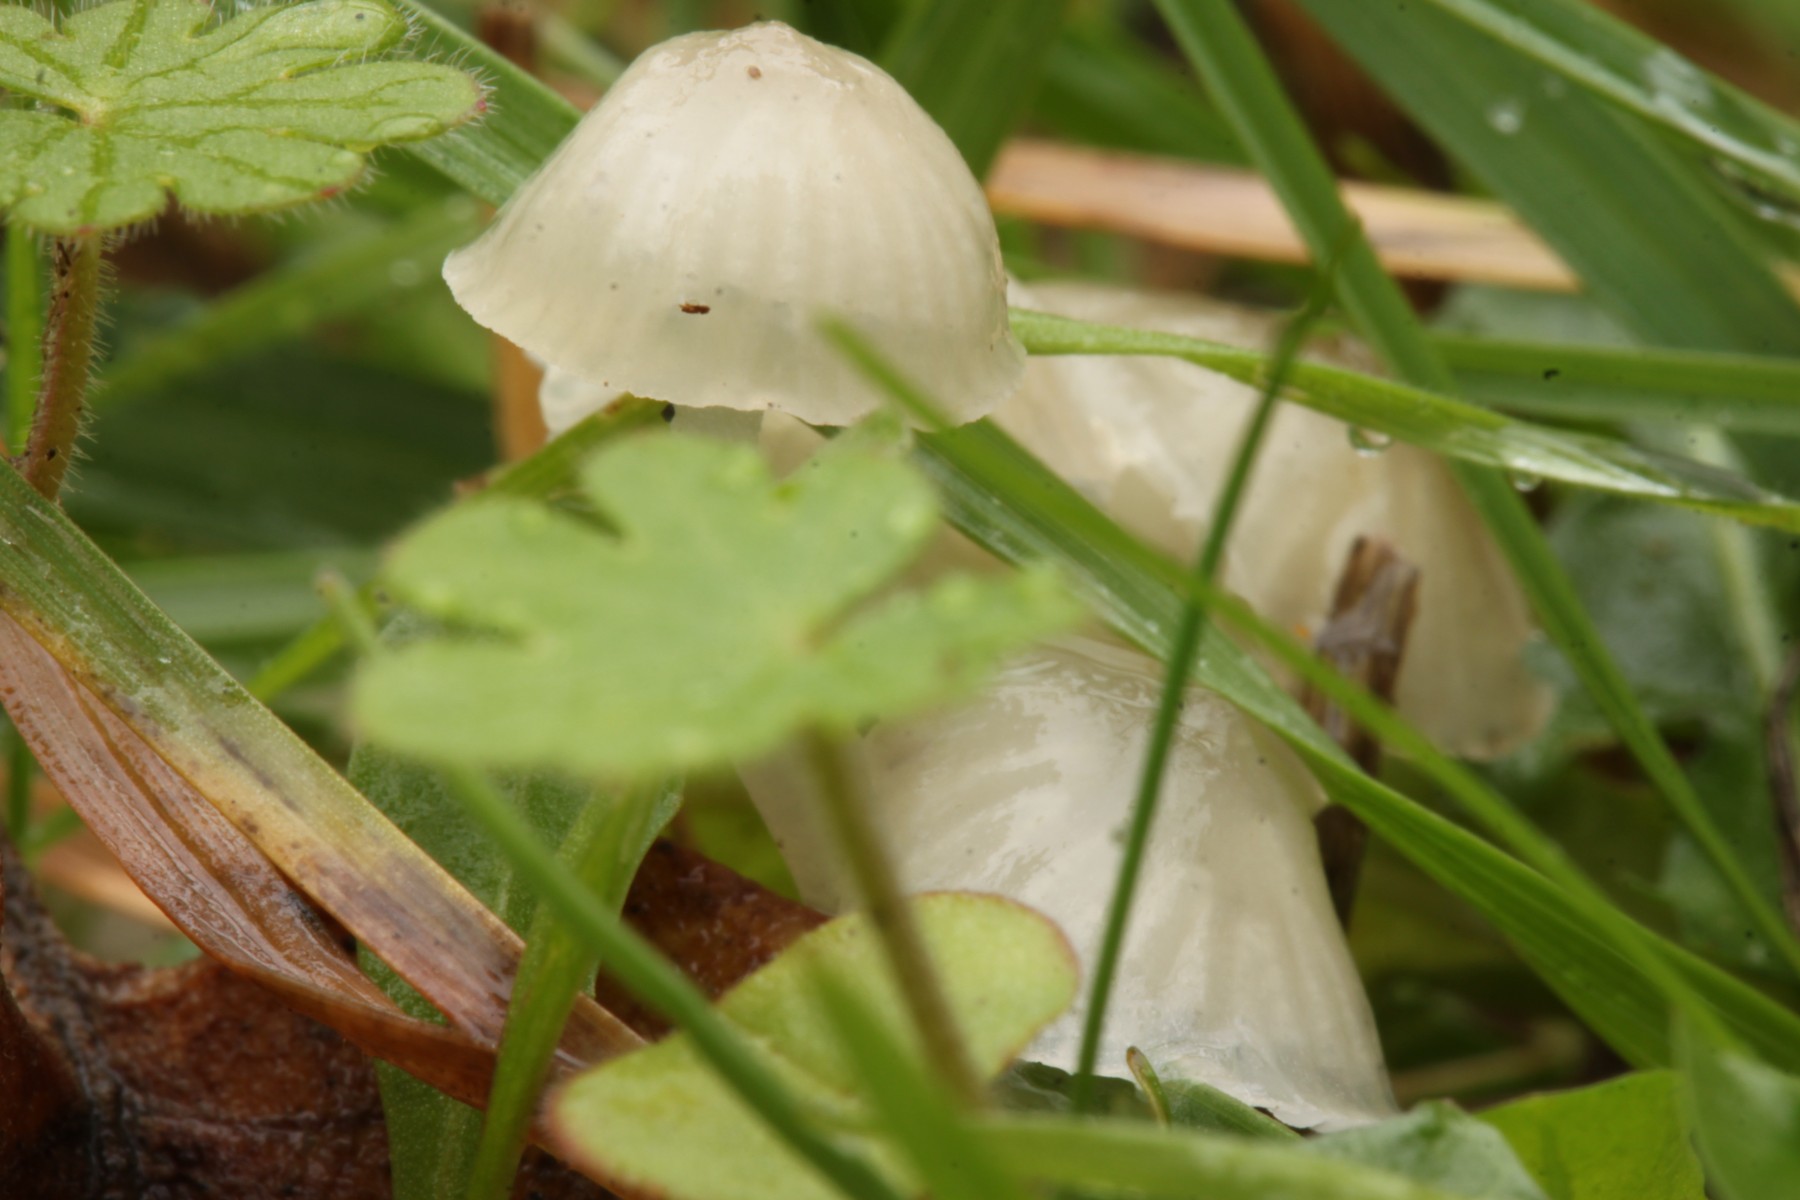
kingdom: Fungi
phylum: Basidiomycota
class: Agaricomycetes
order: Agaricales
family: Mycenaceae
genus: Mycena
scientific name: Mycena
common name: huesvamp
